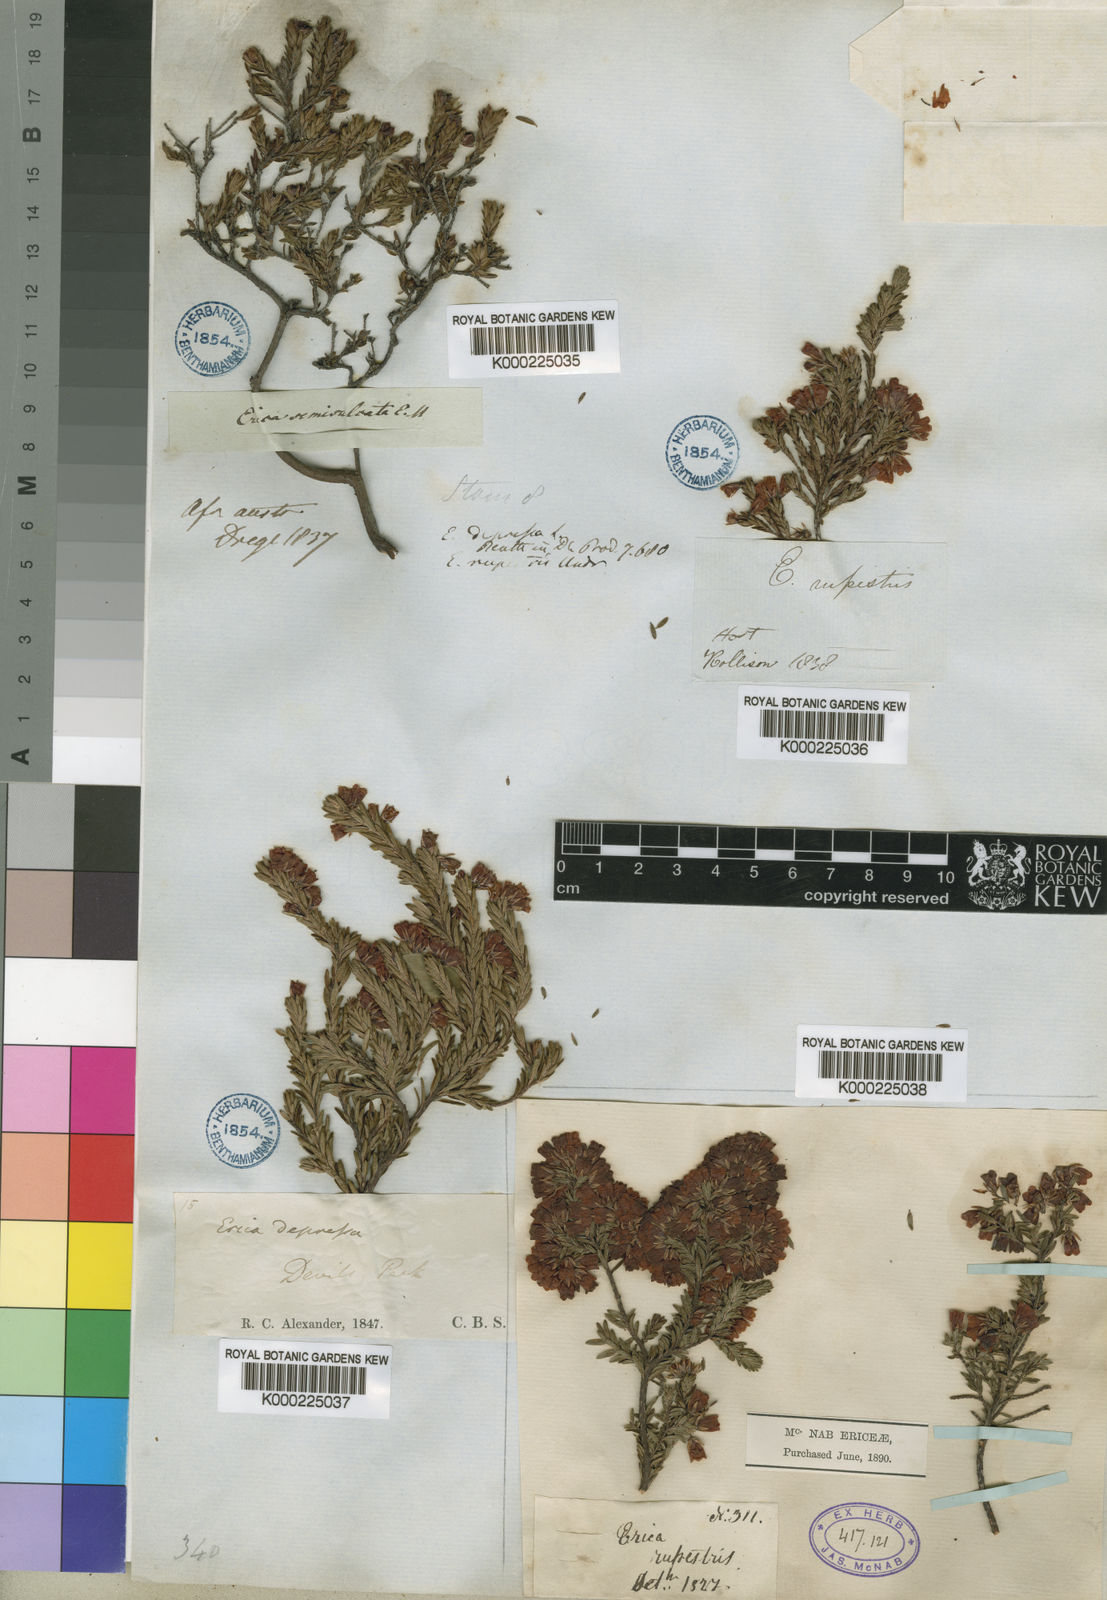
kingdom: Plantae
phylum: Tracheophyta
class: Magnoliopsida
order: Ericales
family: Ericaceae
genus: Erica
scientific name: Erica depressa
